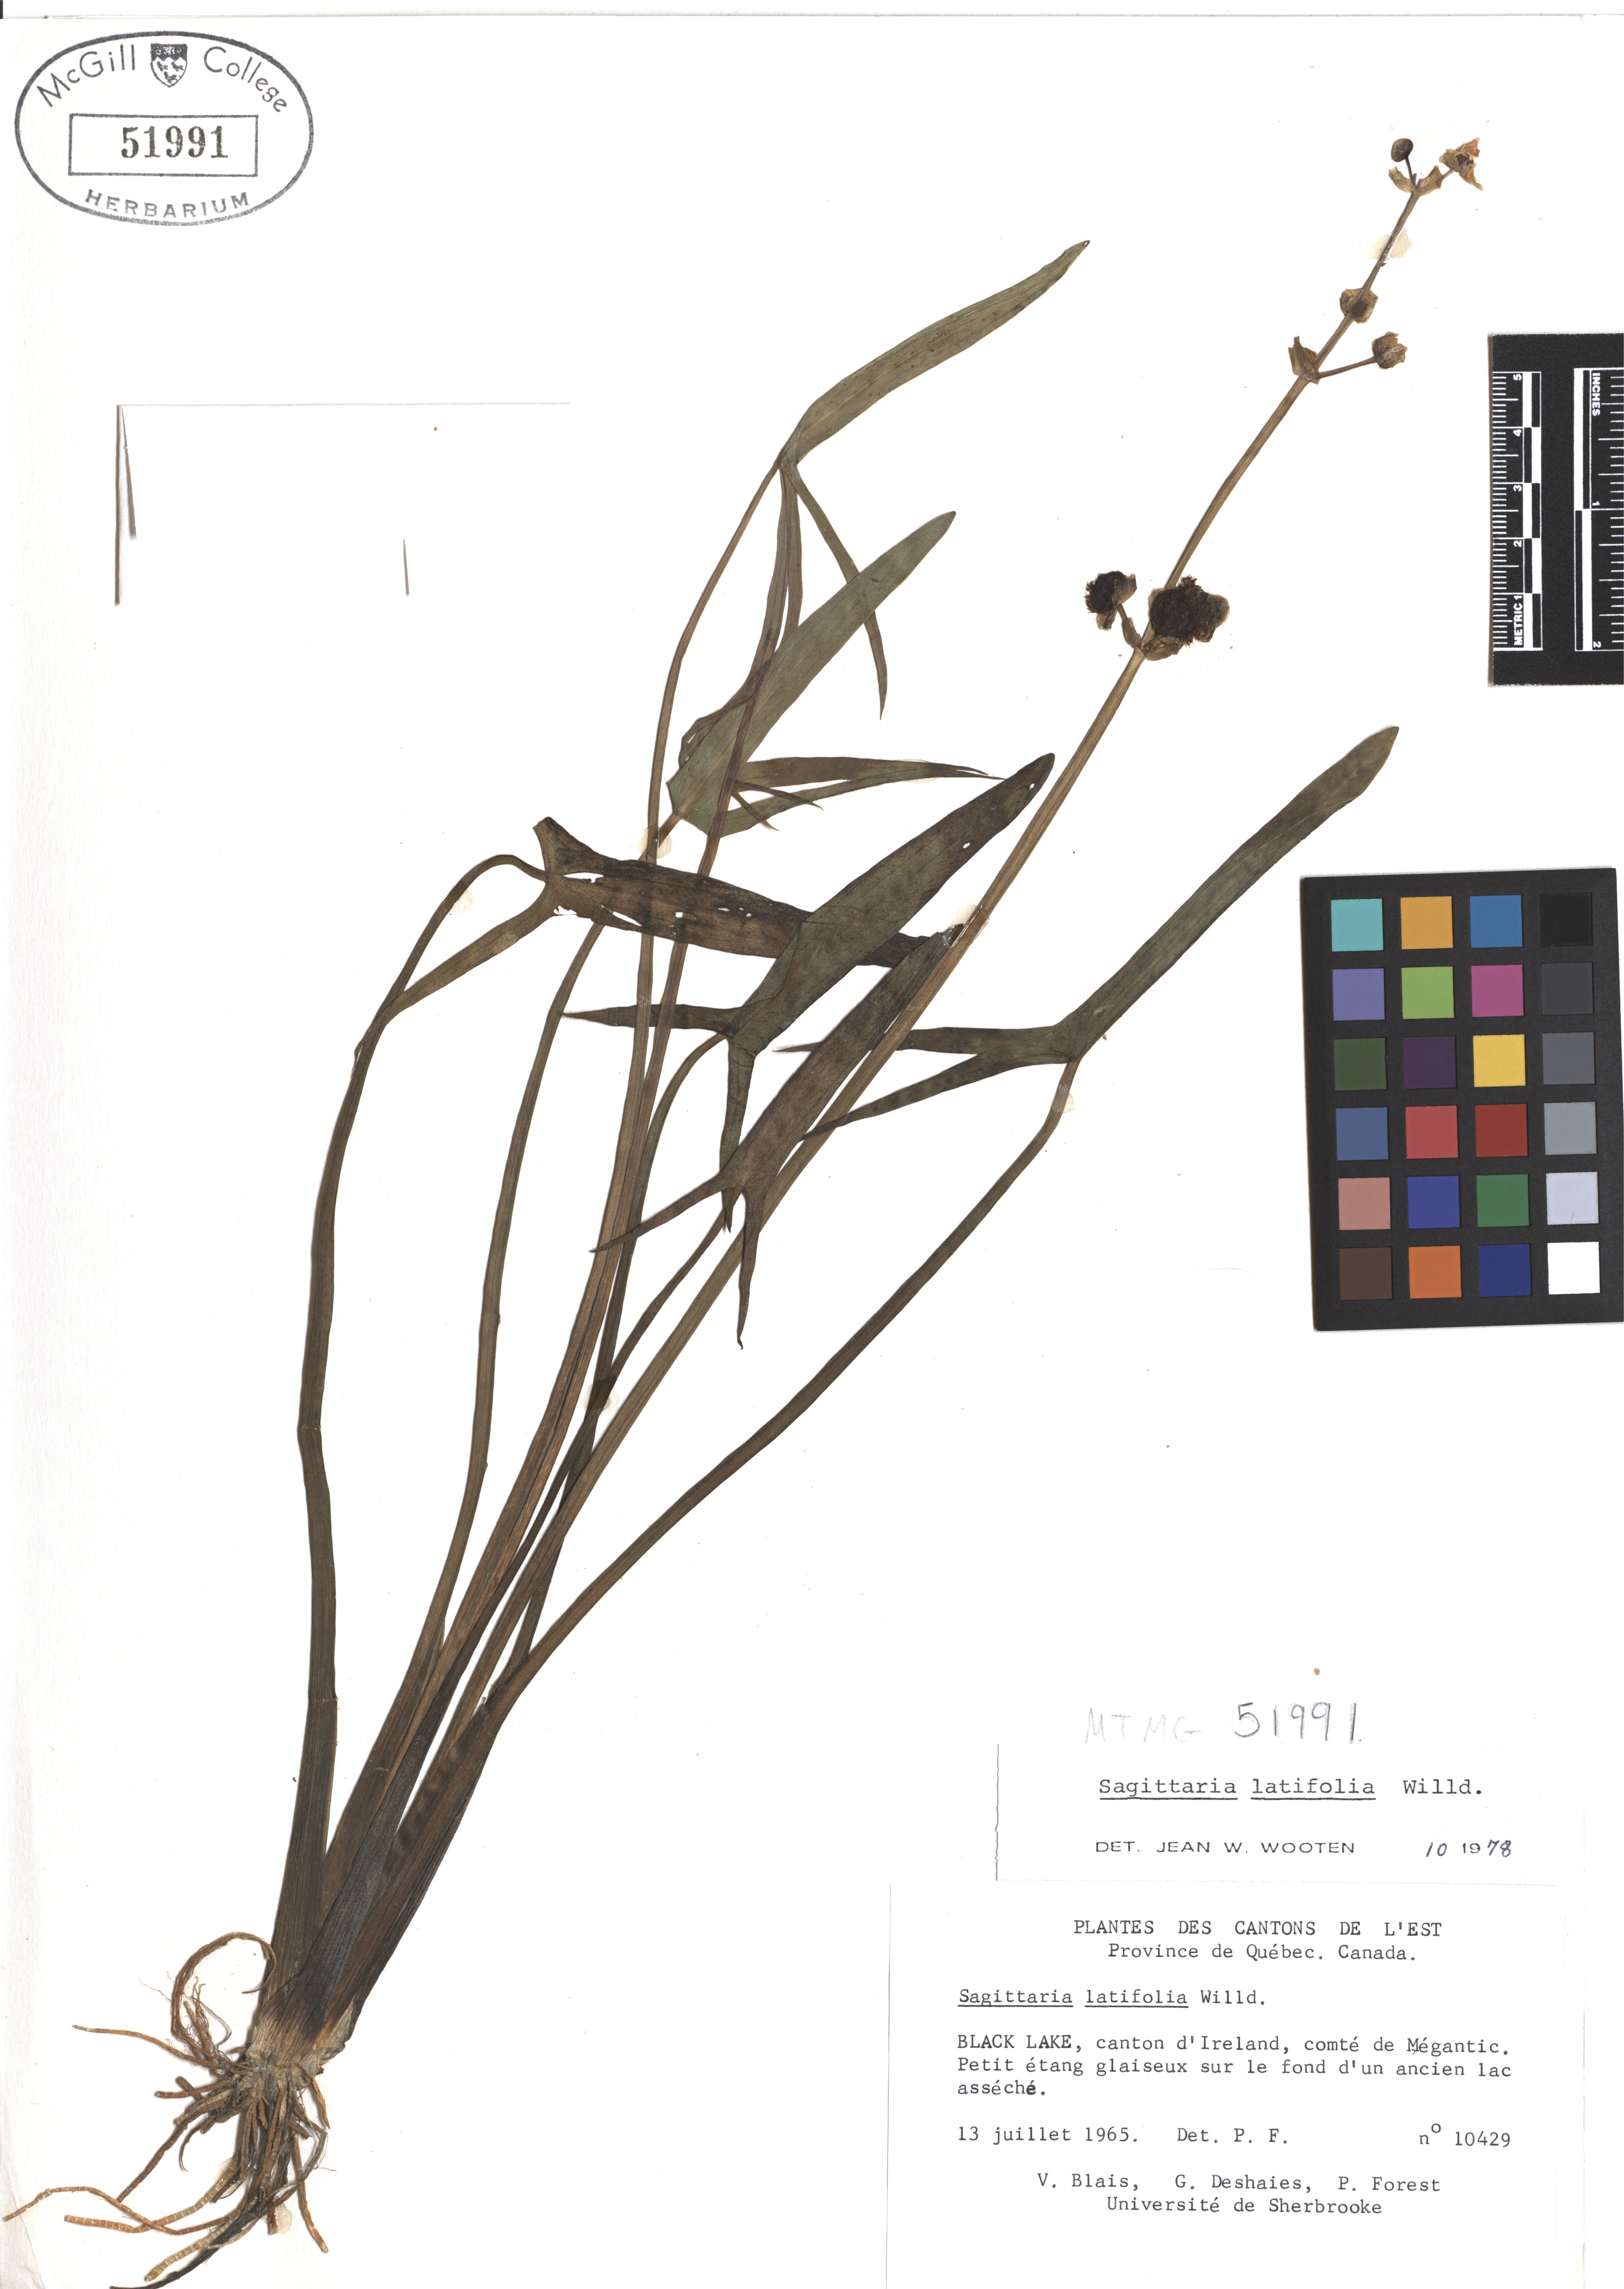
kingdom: Plantae
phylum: Tracheophyta
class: Liliopsida
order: Alismatales
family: Alismataceae
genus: Sagittaria
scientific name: Sagittaria latifolia
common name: Duck-potato
